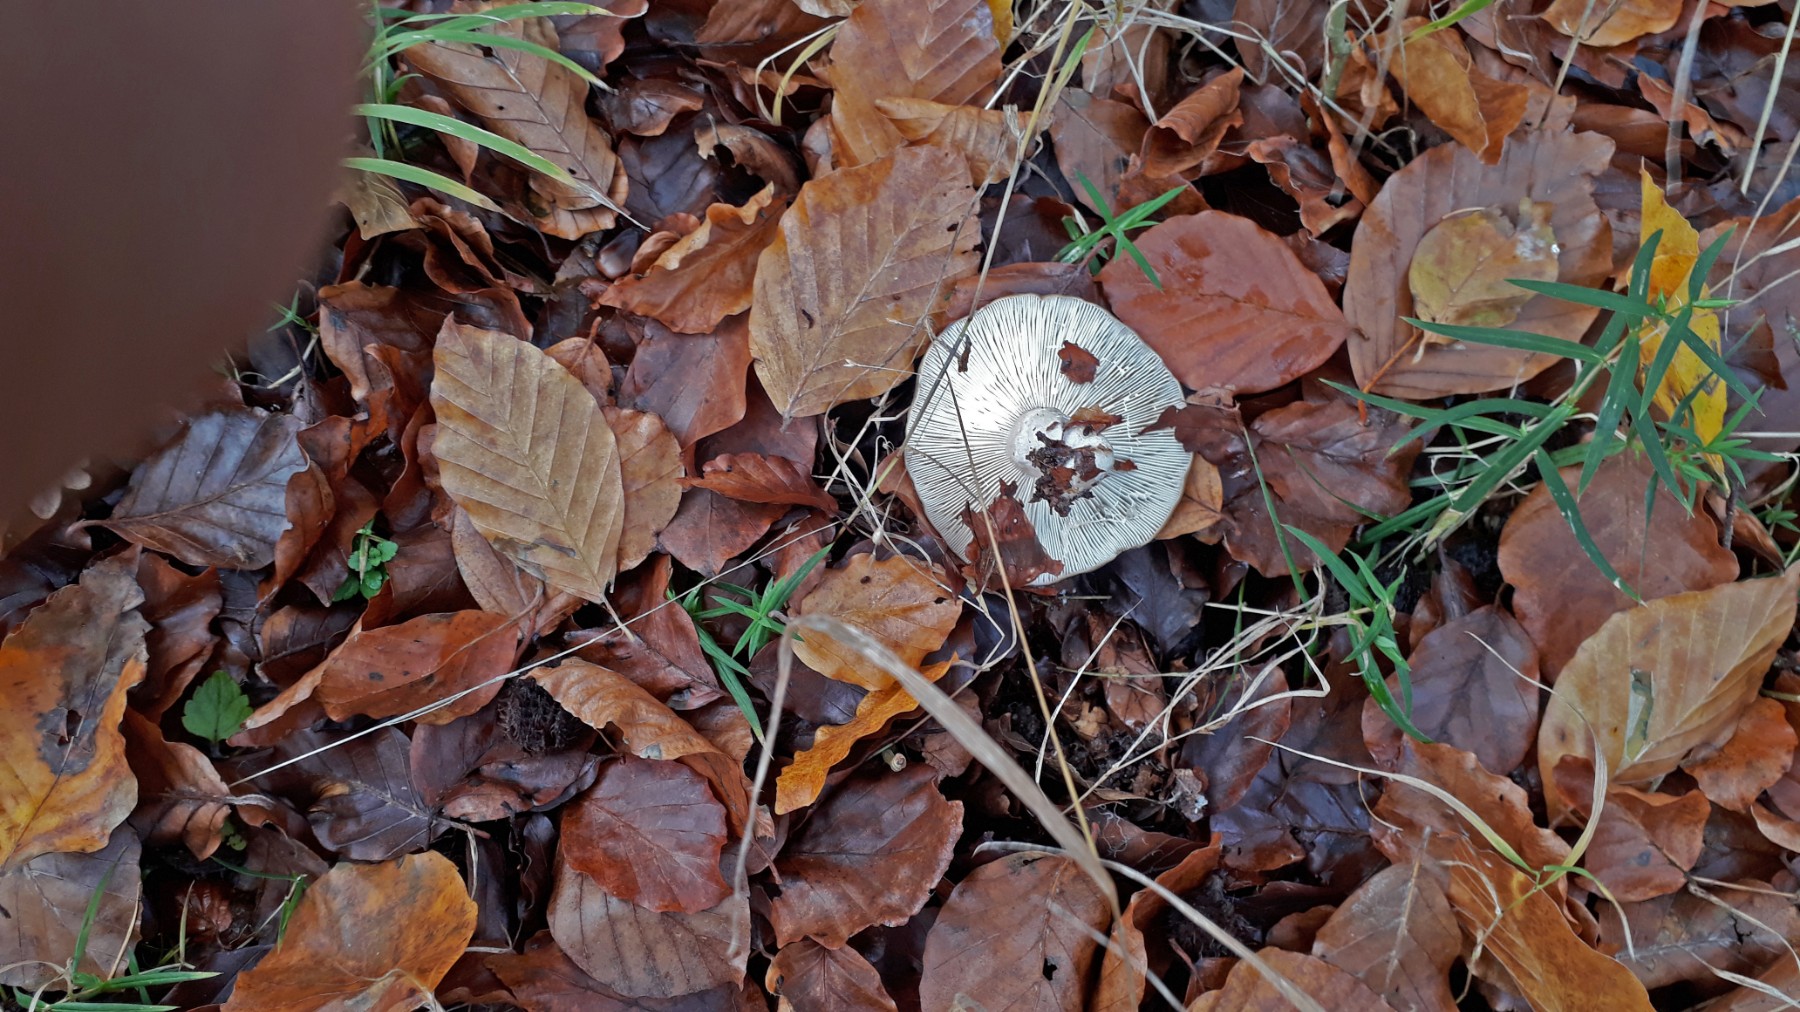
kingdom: Fungi
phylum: Basidiomycota
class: Agaricomycetes
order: Russulales
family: Russulaceae
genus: Lactarius
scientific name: Lactarius blennius
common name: dråbeplettet mælkehat
